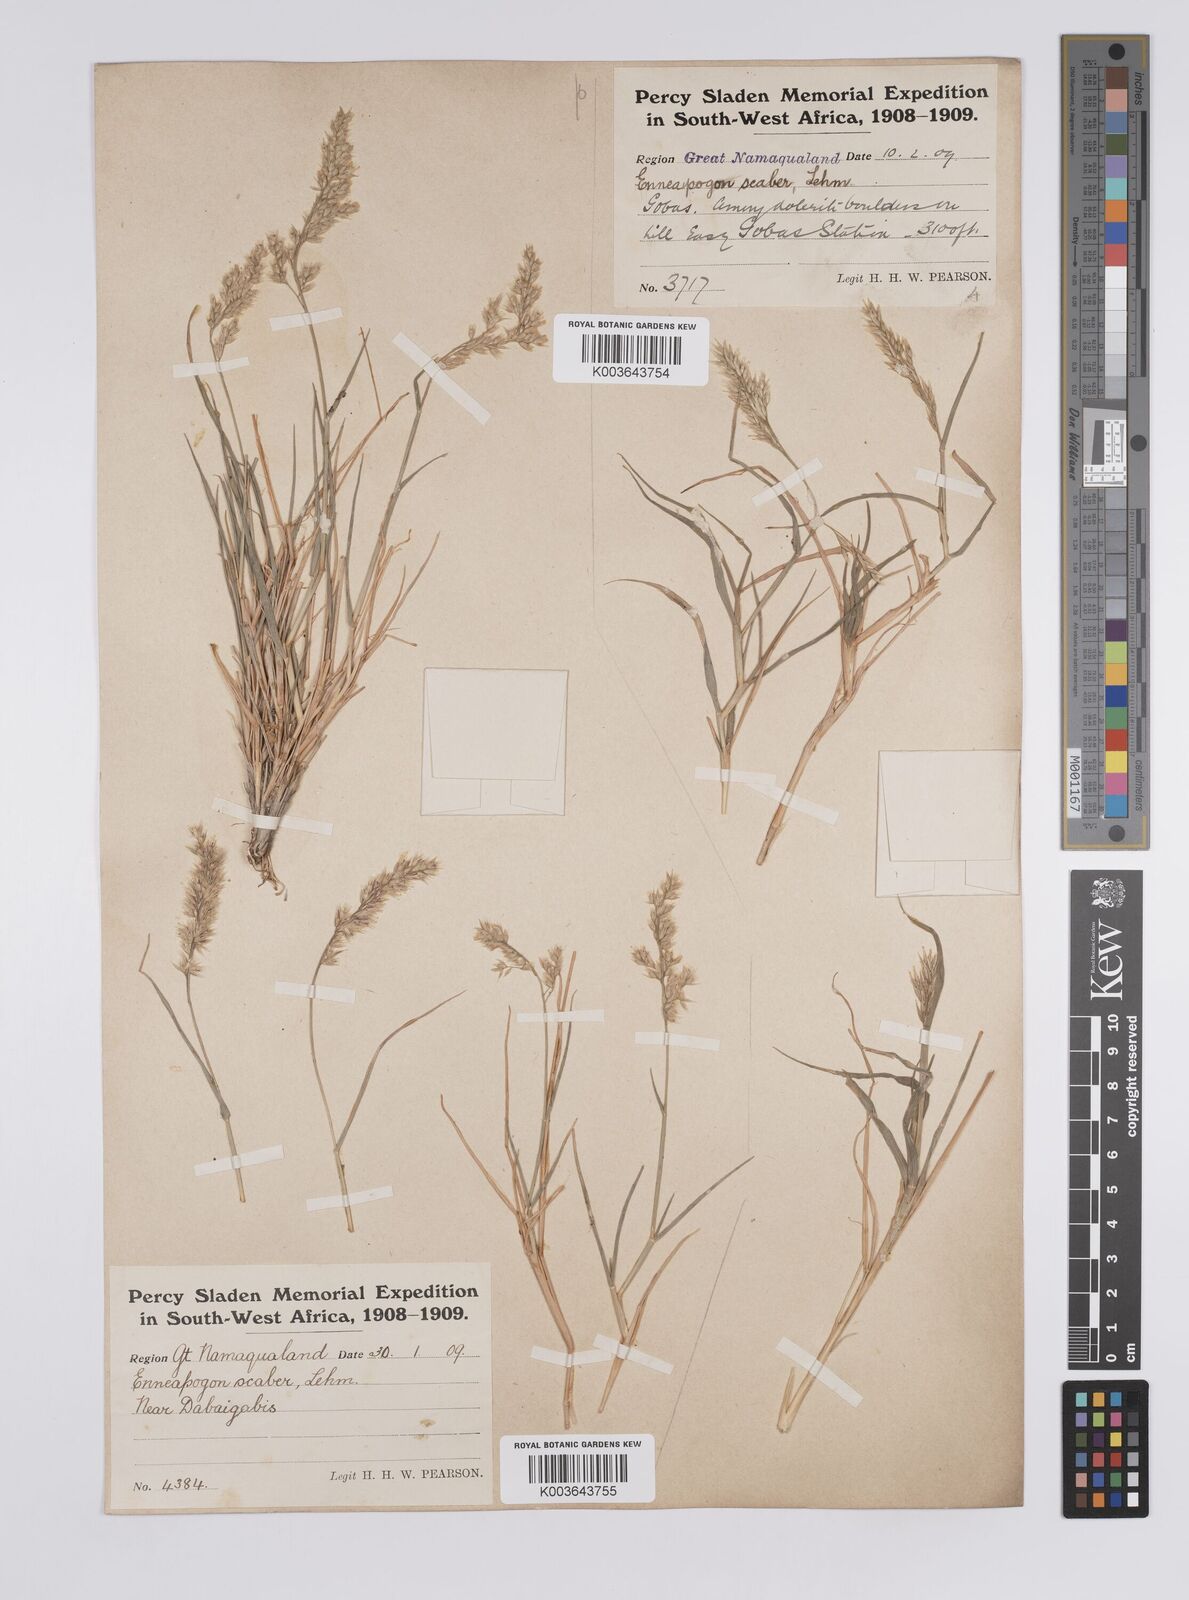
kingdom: Plantae
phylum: Tracheophyta
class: Liliopsida
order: Poales
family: Poaceae
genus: Enneapogon
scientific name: Enneapogon scaber
